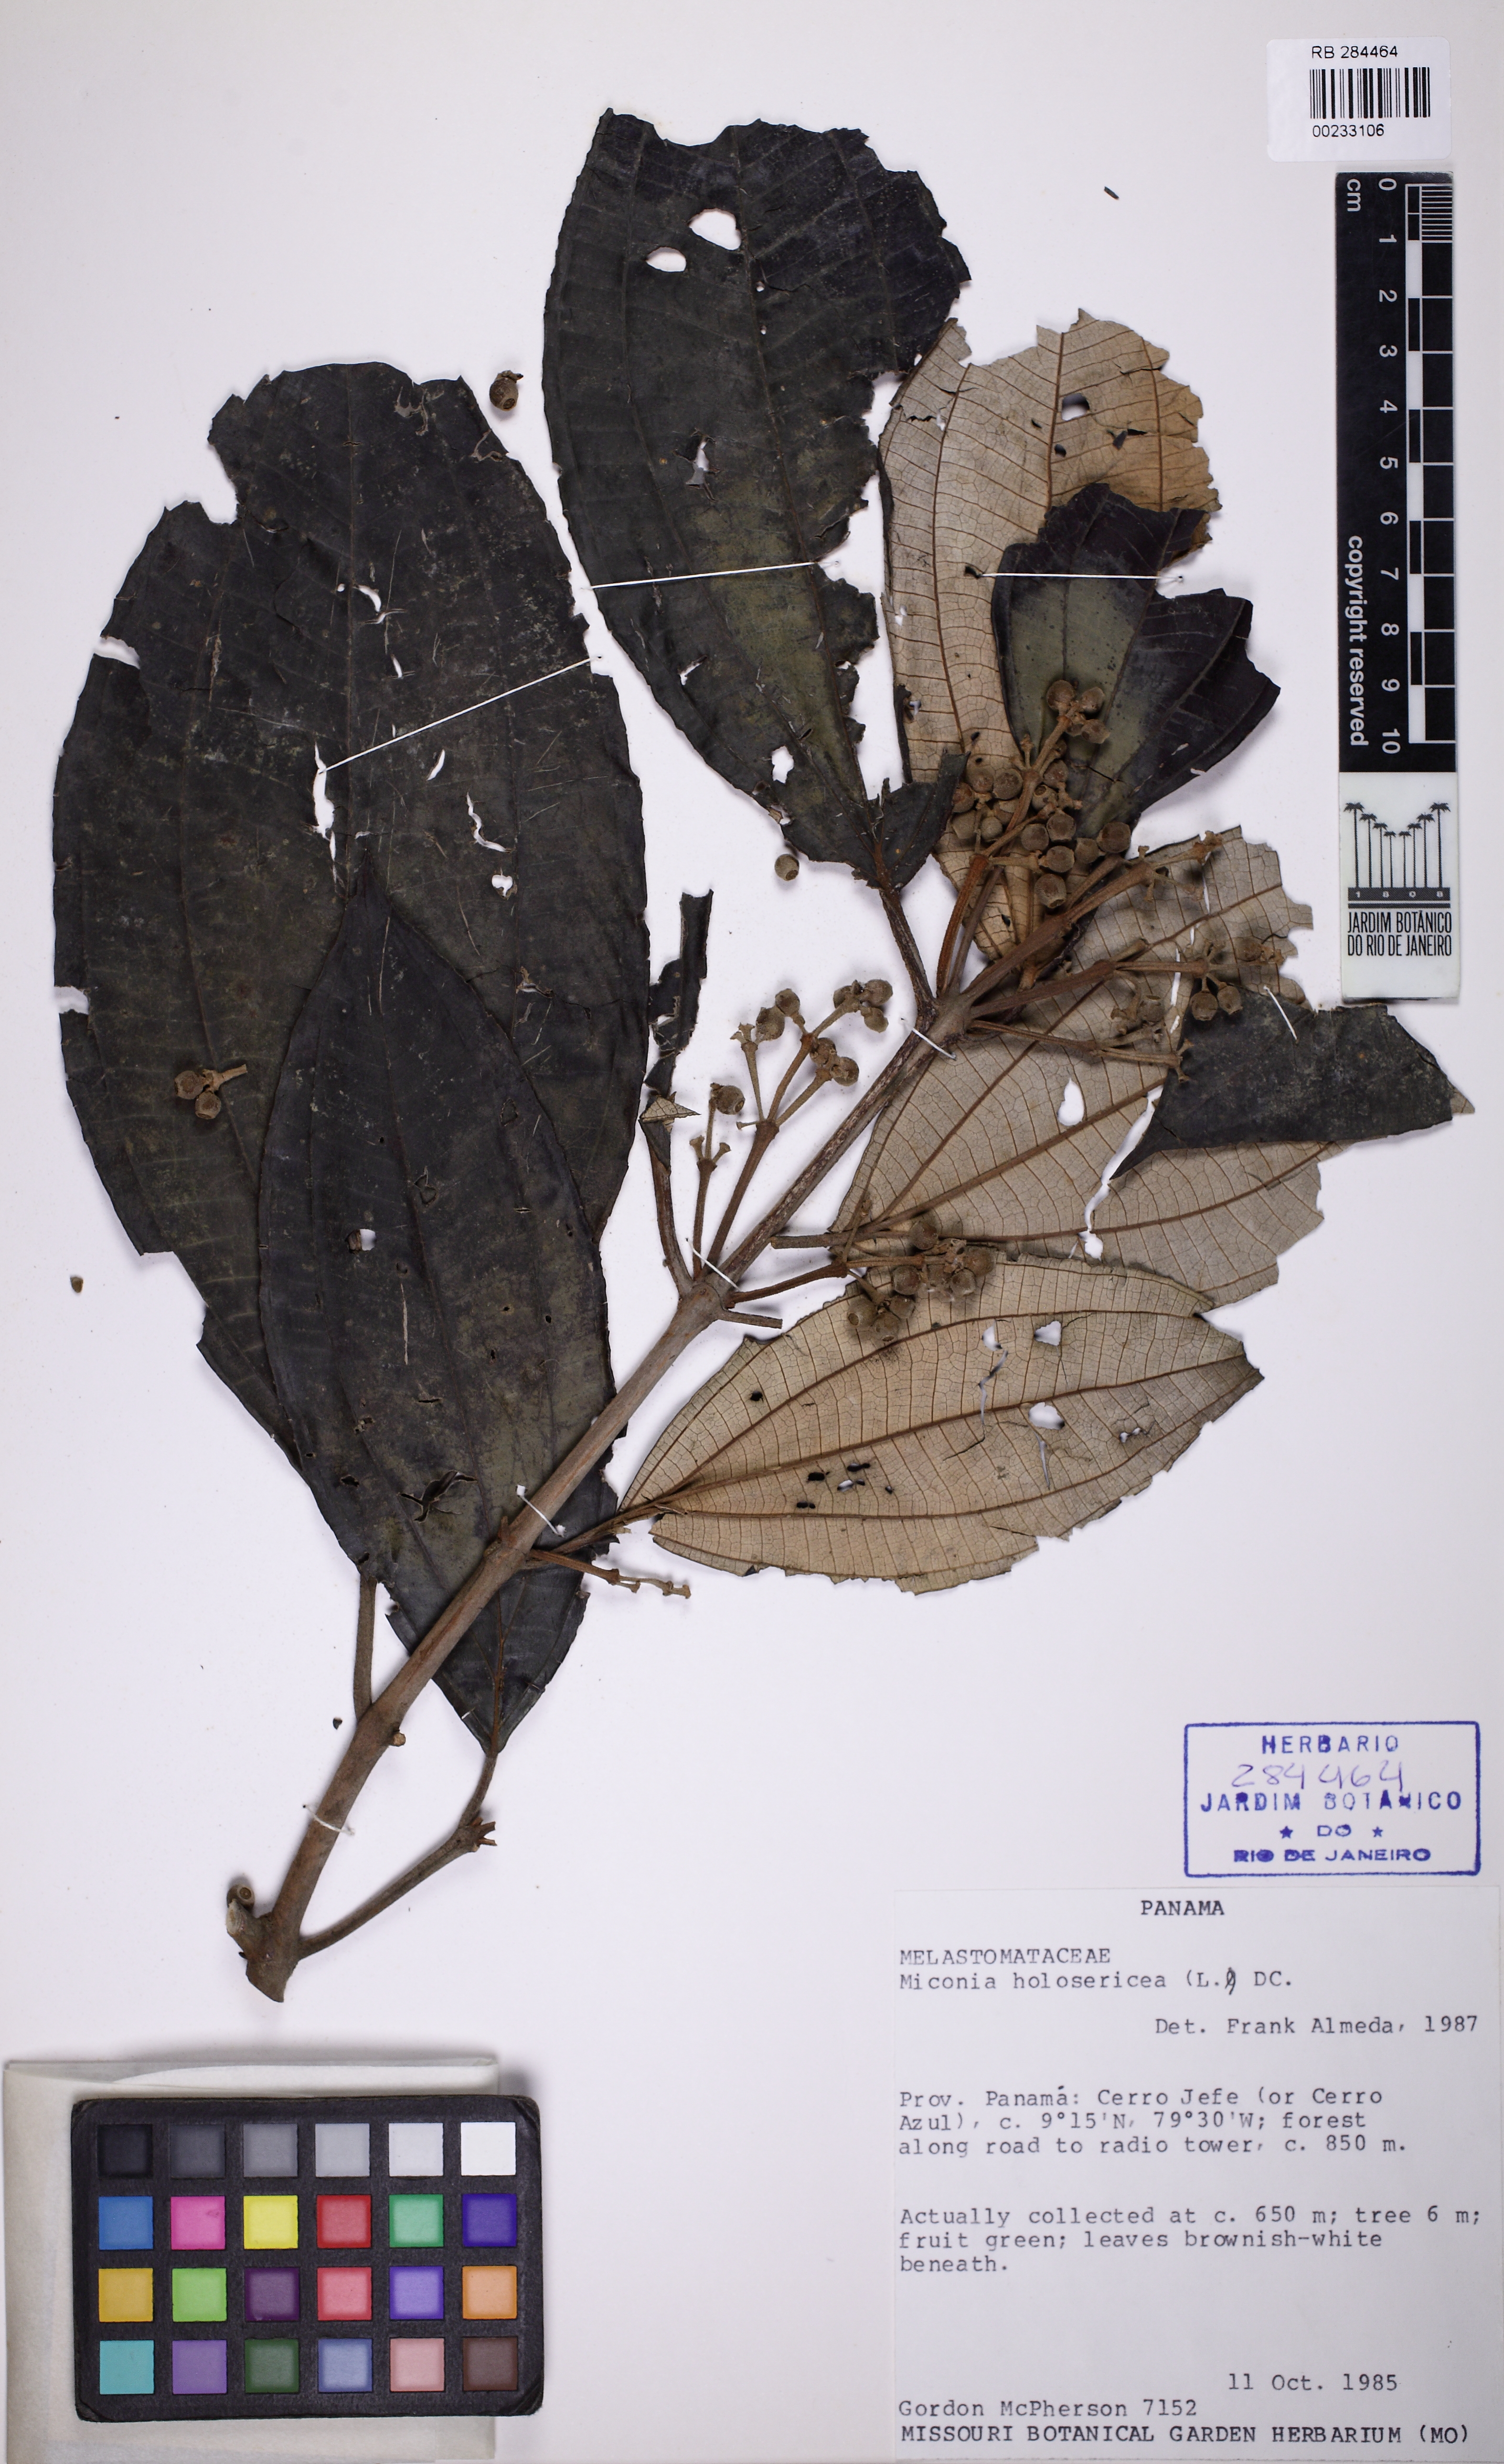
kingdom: Plantae
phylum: Tracheophyta
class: Magnoliopsida
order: Myrtales
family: Melastomataceae
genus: Miconia
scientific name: Miconia holosericea
